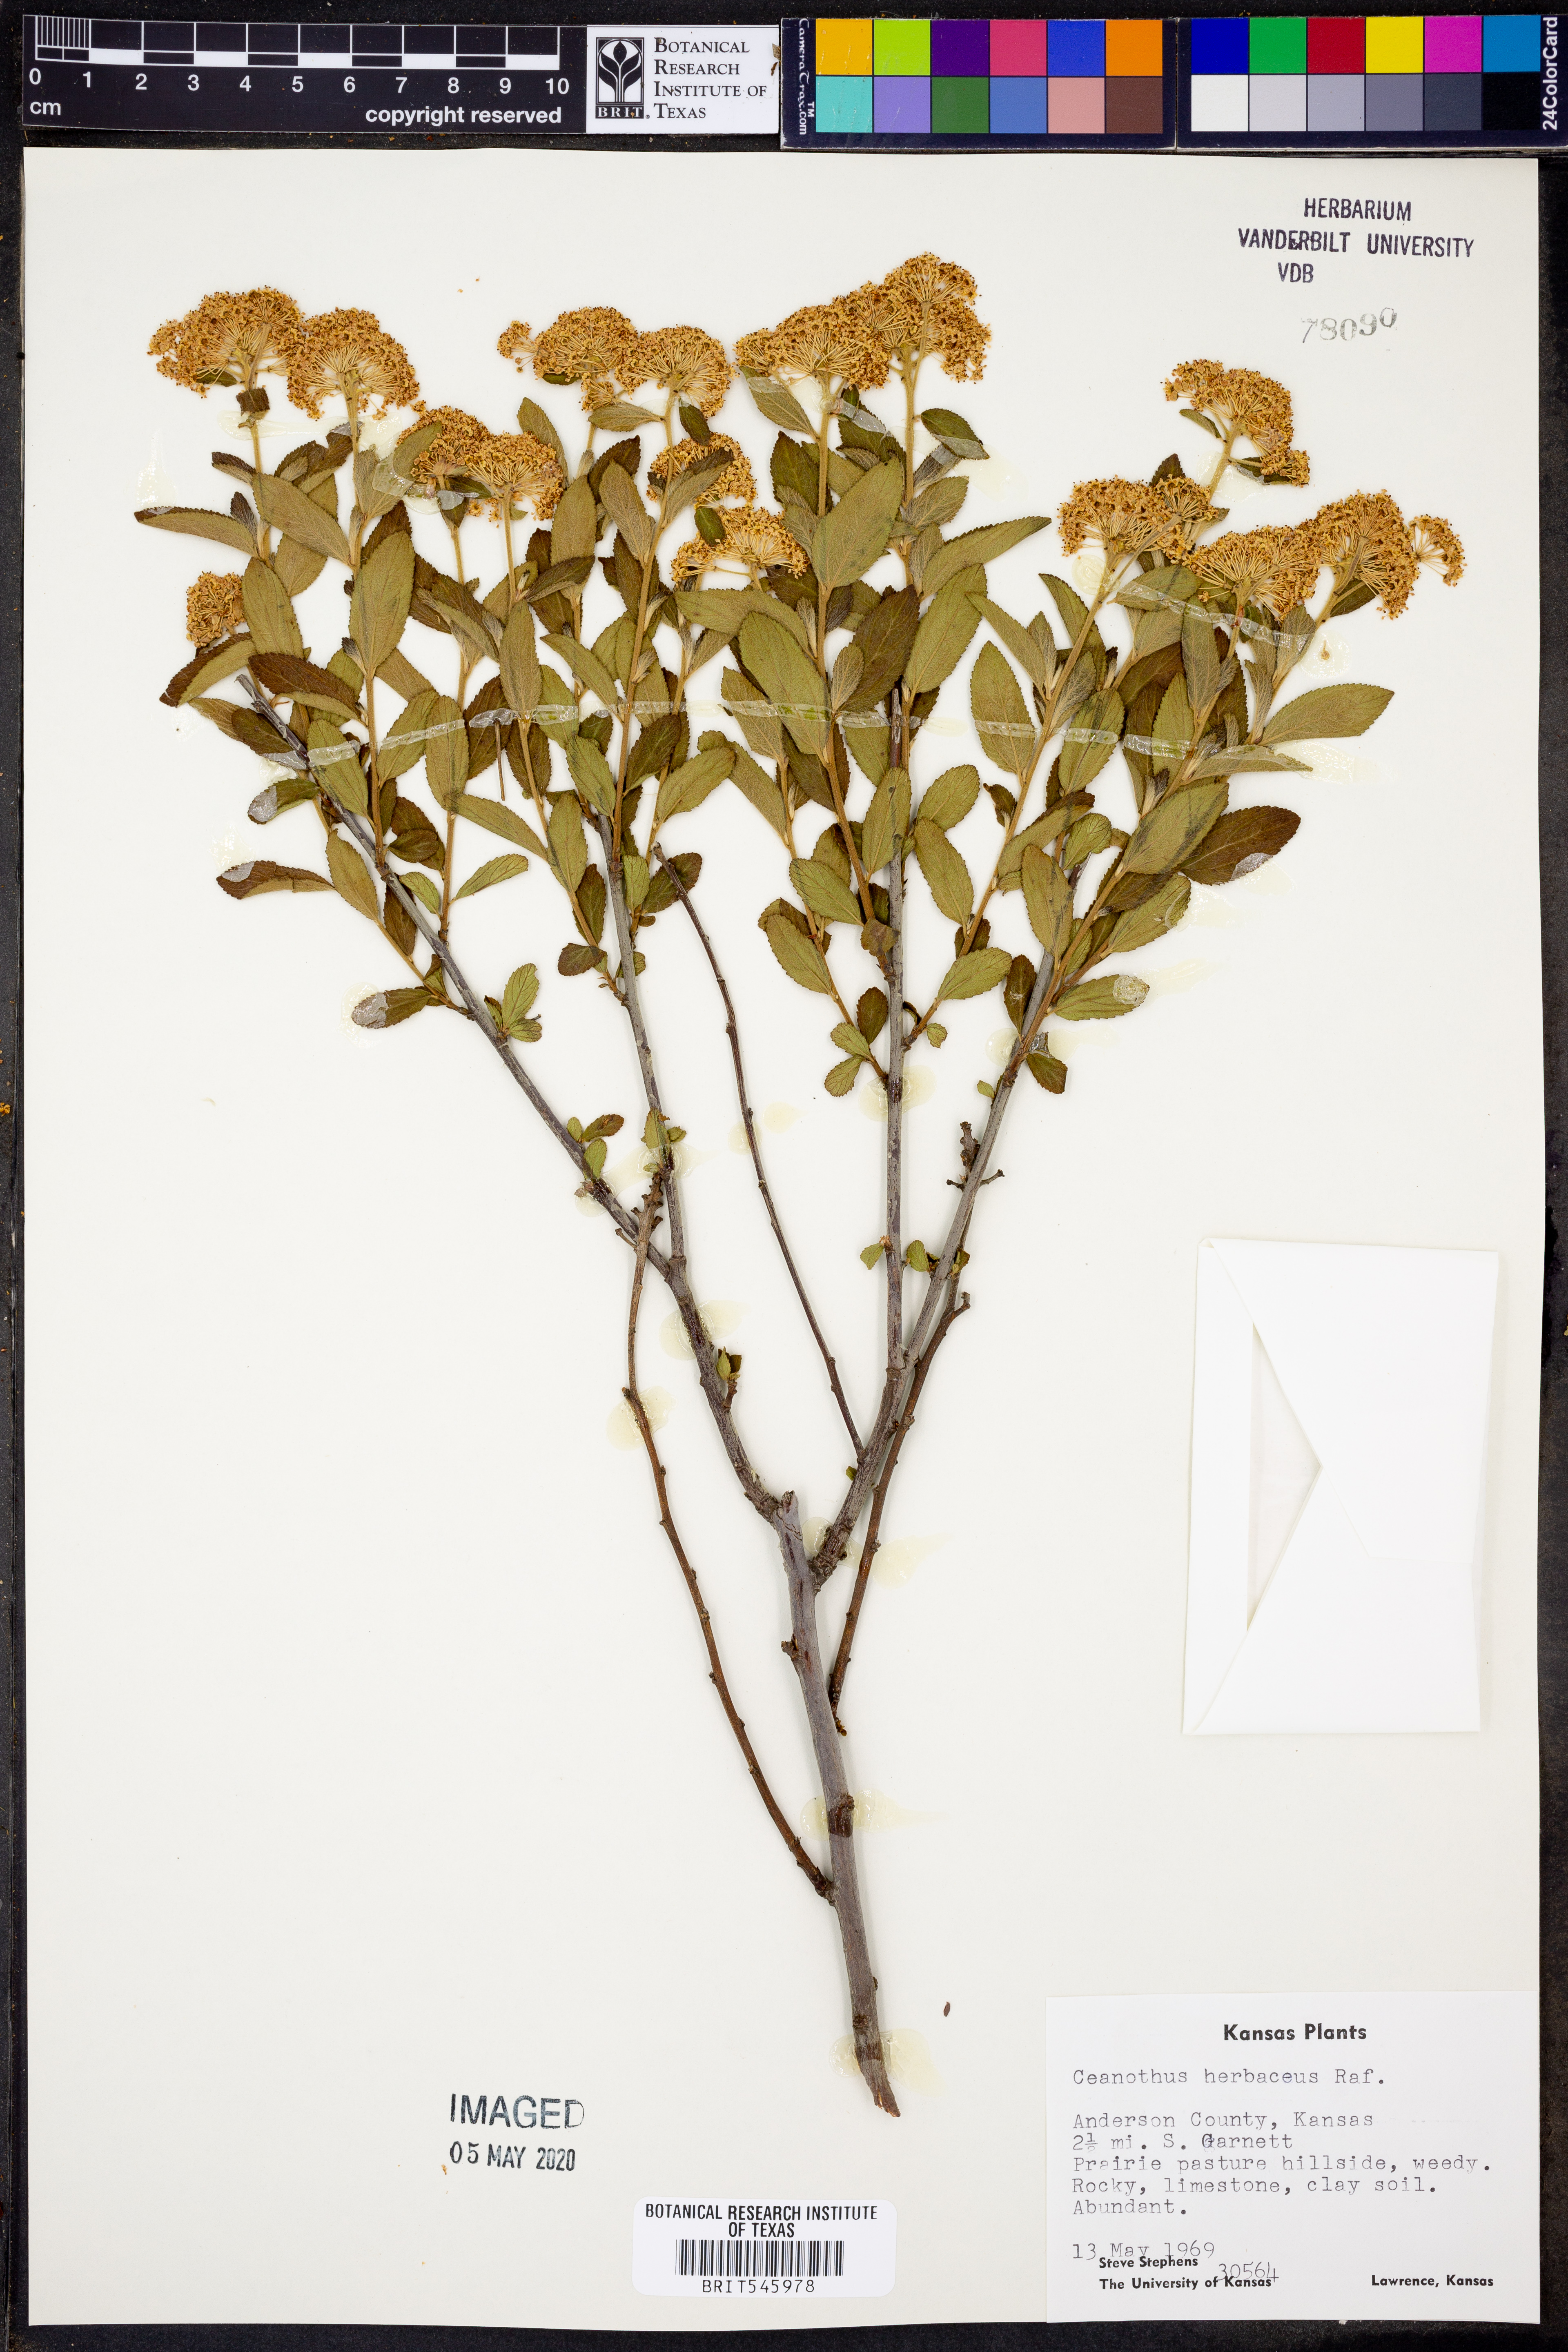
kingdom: Plantae
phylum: Tracheophyta
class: Magnoliopsida
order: Rosales
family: Rhamnaceae
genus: Ceanothus
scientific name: Ceanothus herbaceus
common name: Inland ceanothus
